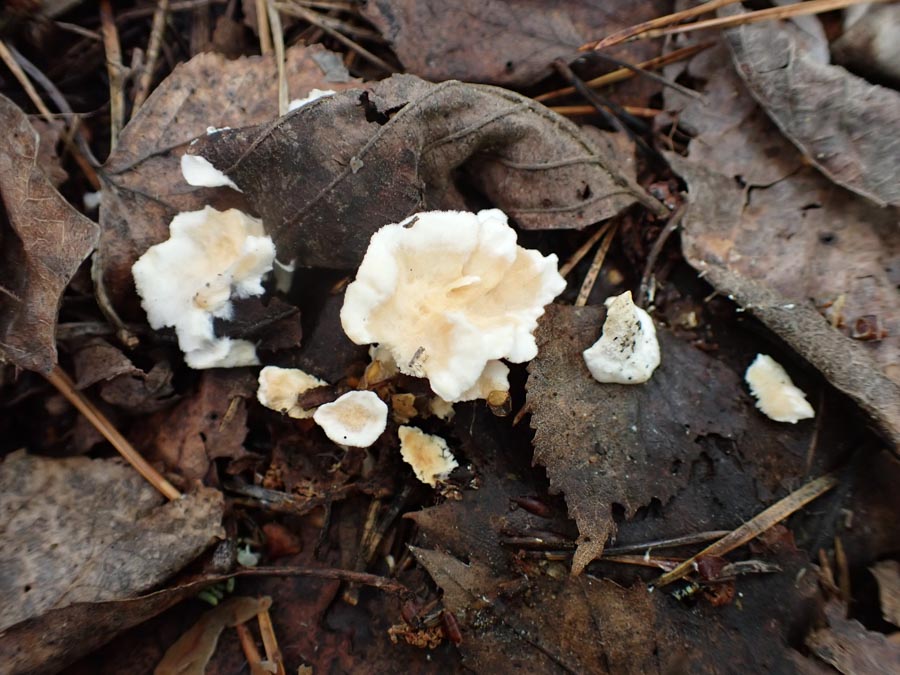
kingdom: Fungi
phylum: Basidiomycota
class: Agaricomycetes
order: Cantharellales
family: Hydnaceae
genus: Sistotrema
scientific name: Sistotrema confluens
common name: stilket kroneskorpe
